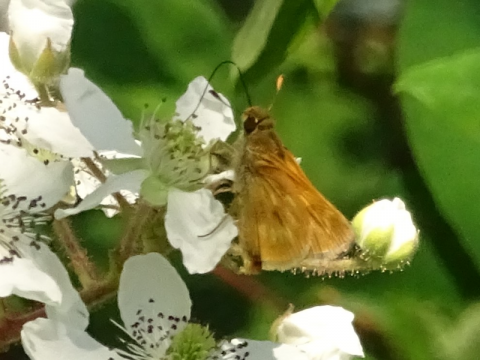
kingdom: Animalia
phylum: Arthropoda
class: Insecta
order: Lepidoptera
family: Hesperiidae
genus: Polites
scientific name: Polites
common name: Long Dash Skipper
